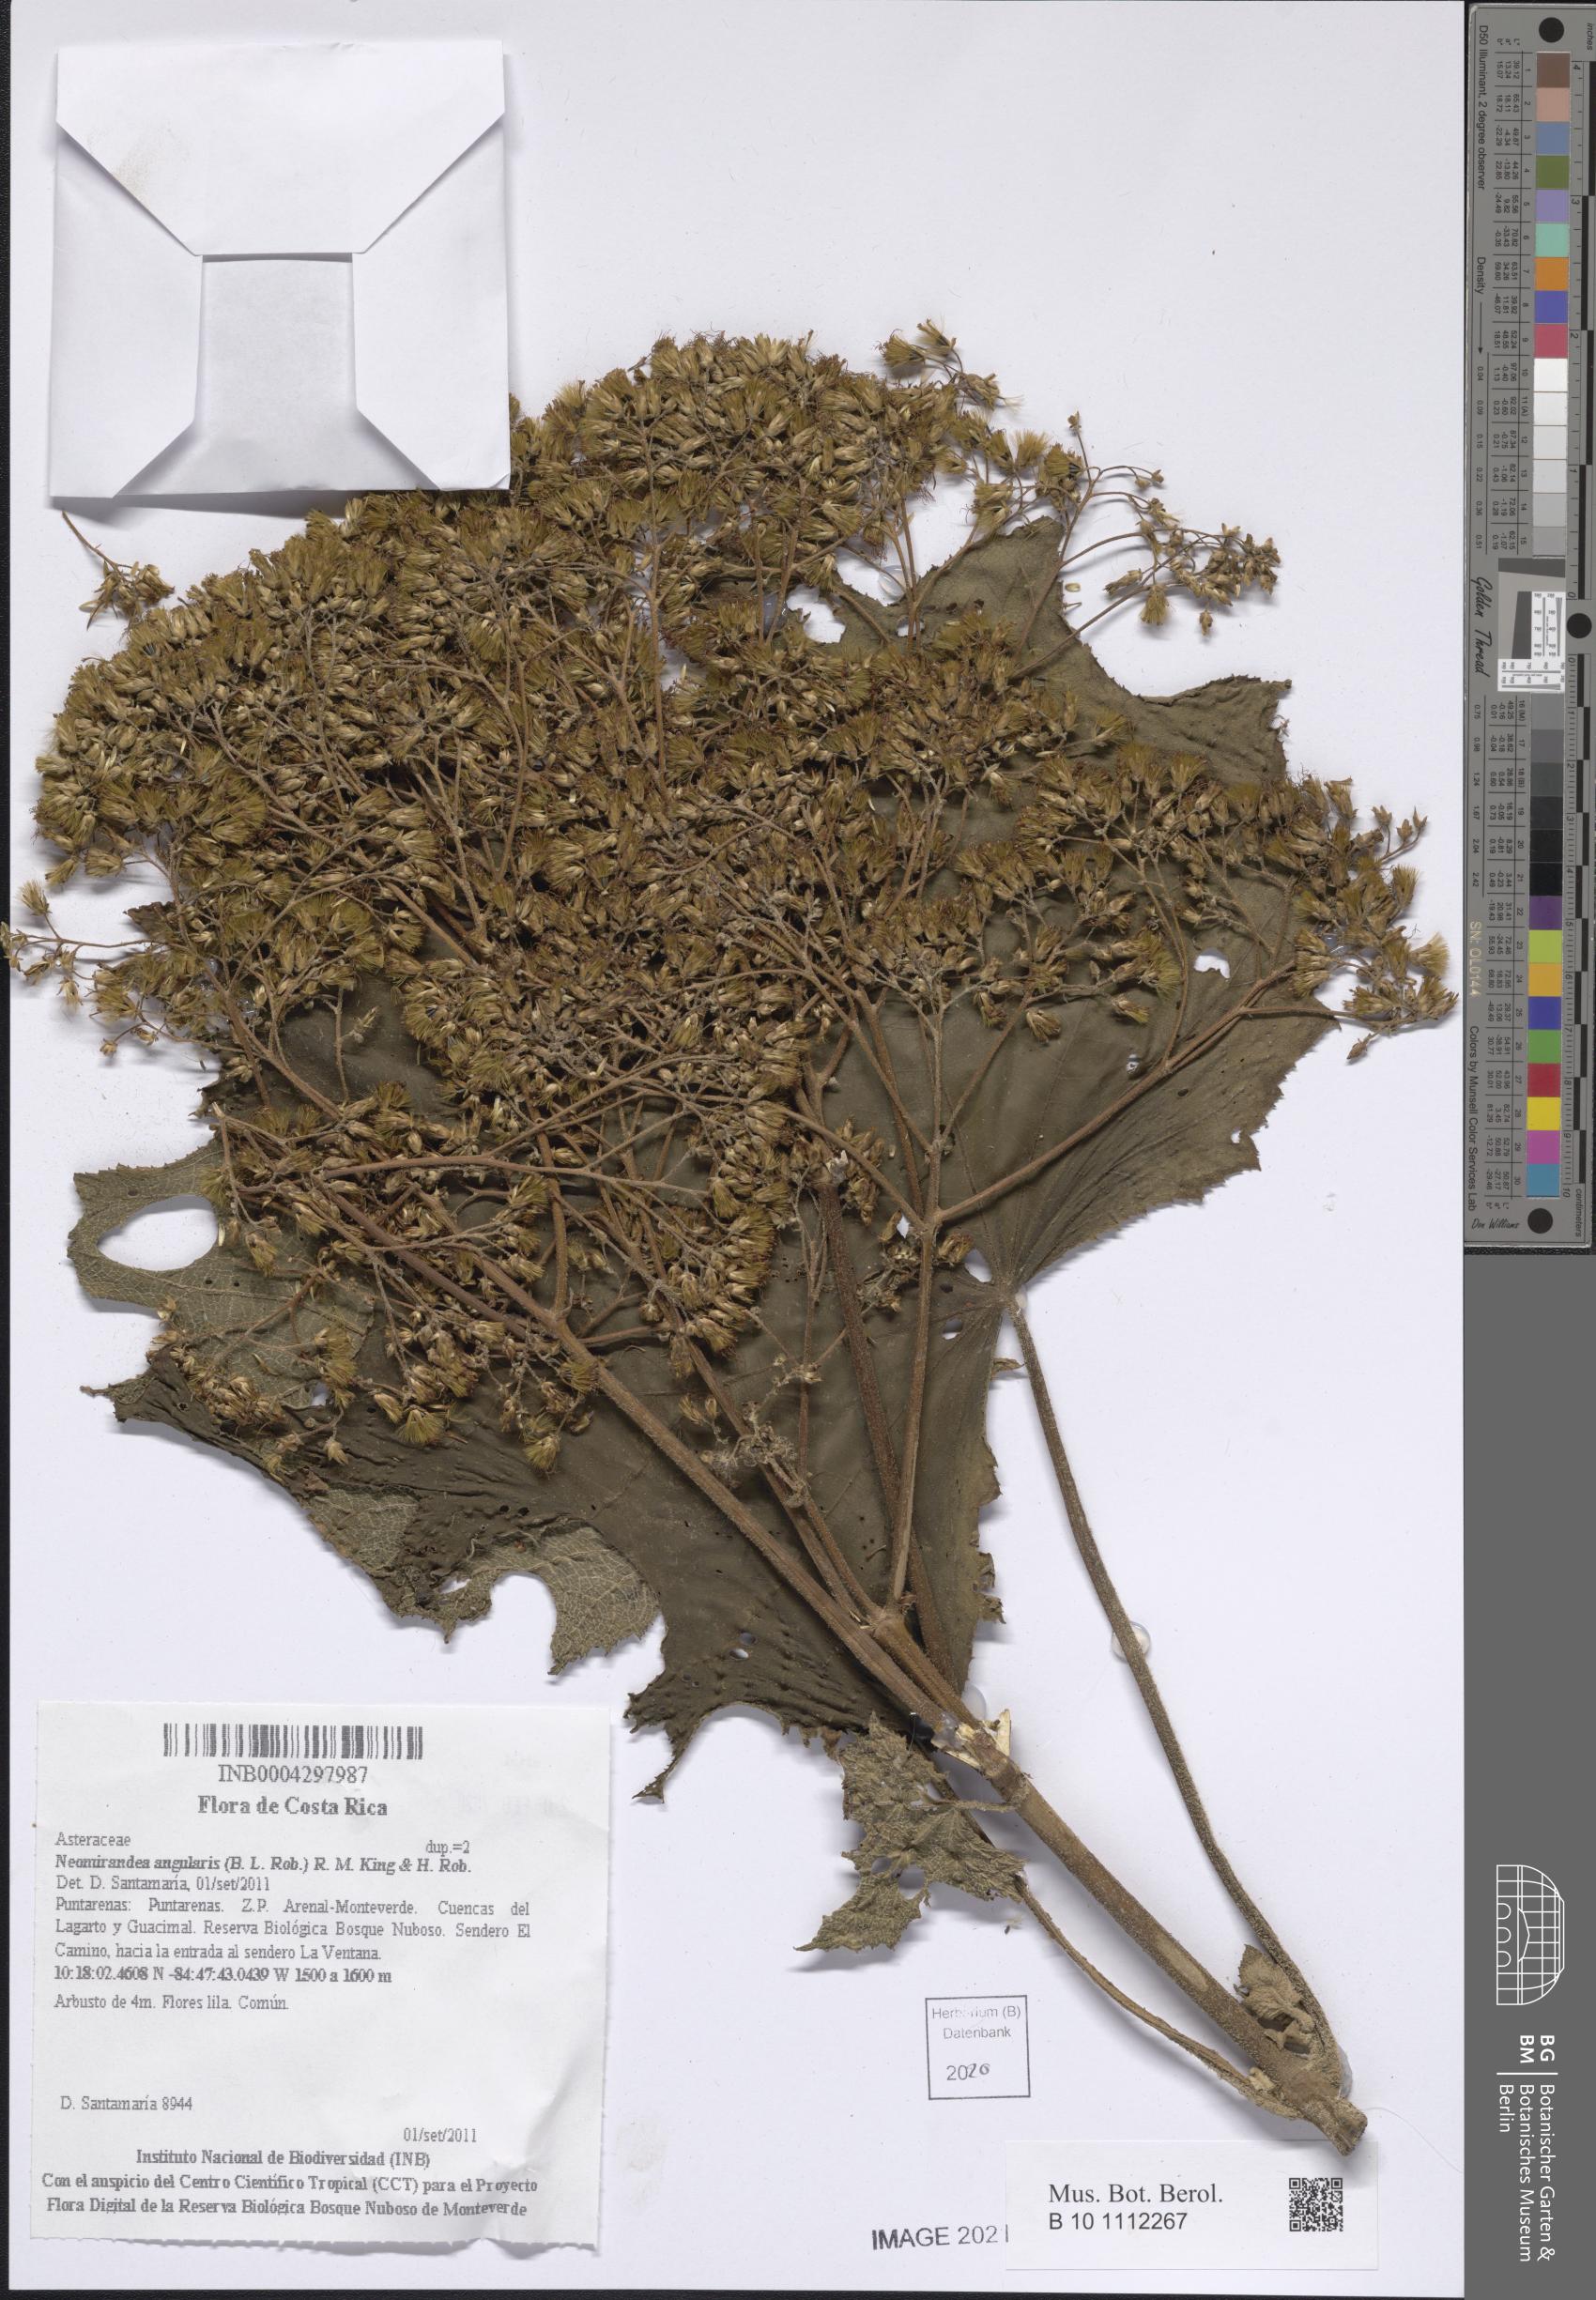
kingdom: Plantae
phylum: Tracheophyta
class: Magnoliopsida
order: Asterales
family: Asteraceae
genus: Neomirandea
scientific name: Neomirandea angularis
